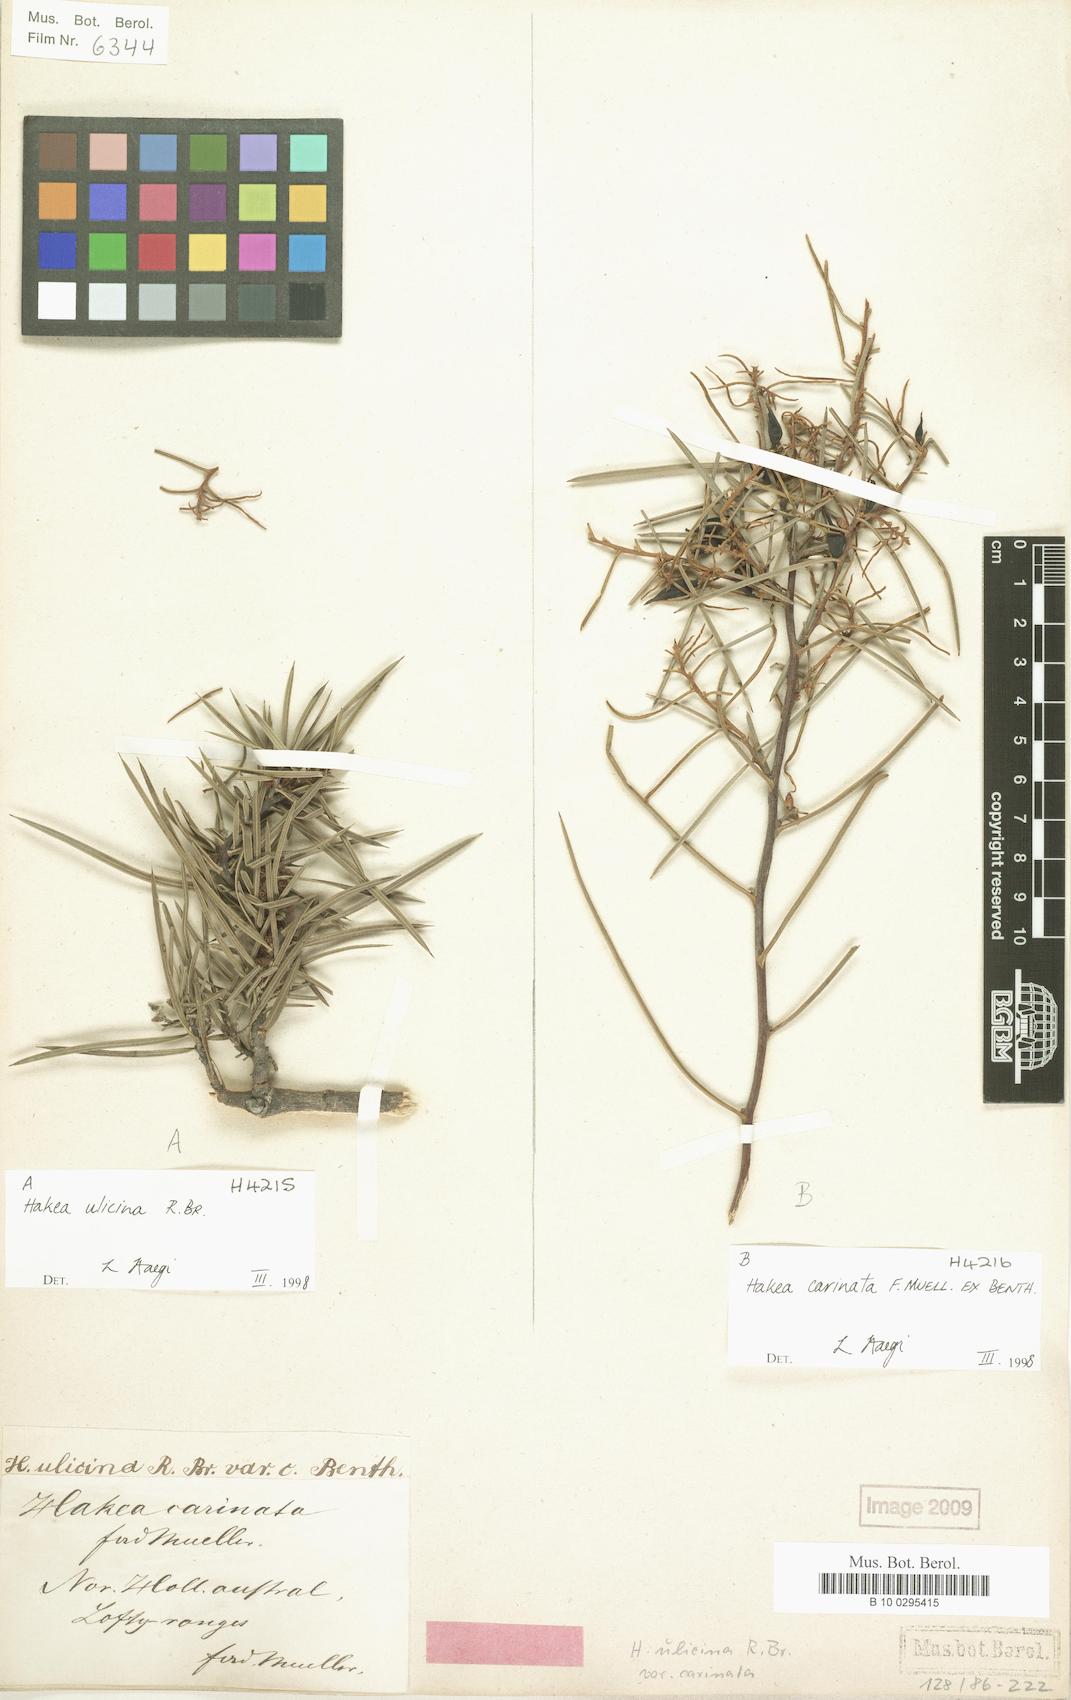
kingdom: Plantae
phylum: Tracheophyta
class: Magnoliopsida
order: Proteales
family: Proteaceae
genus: Hakea
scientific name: Hakea carinata
